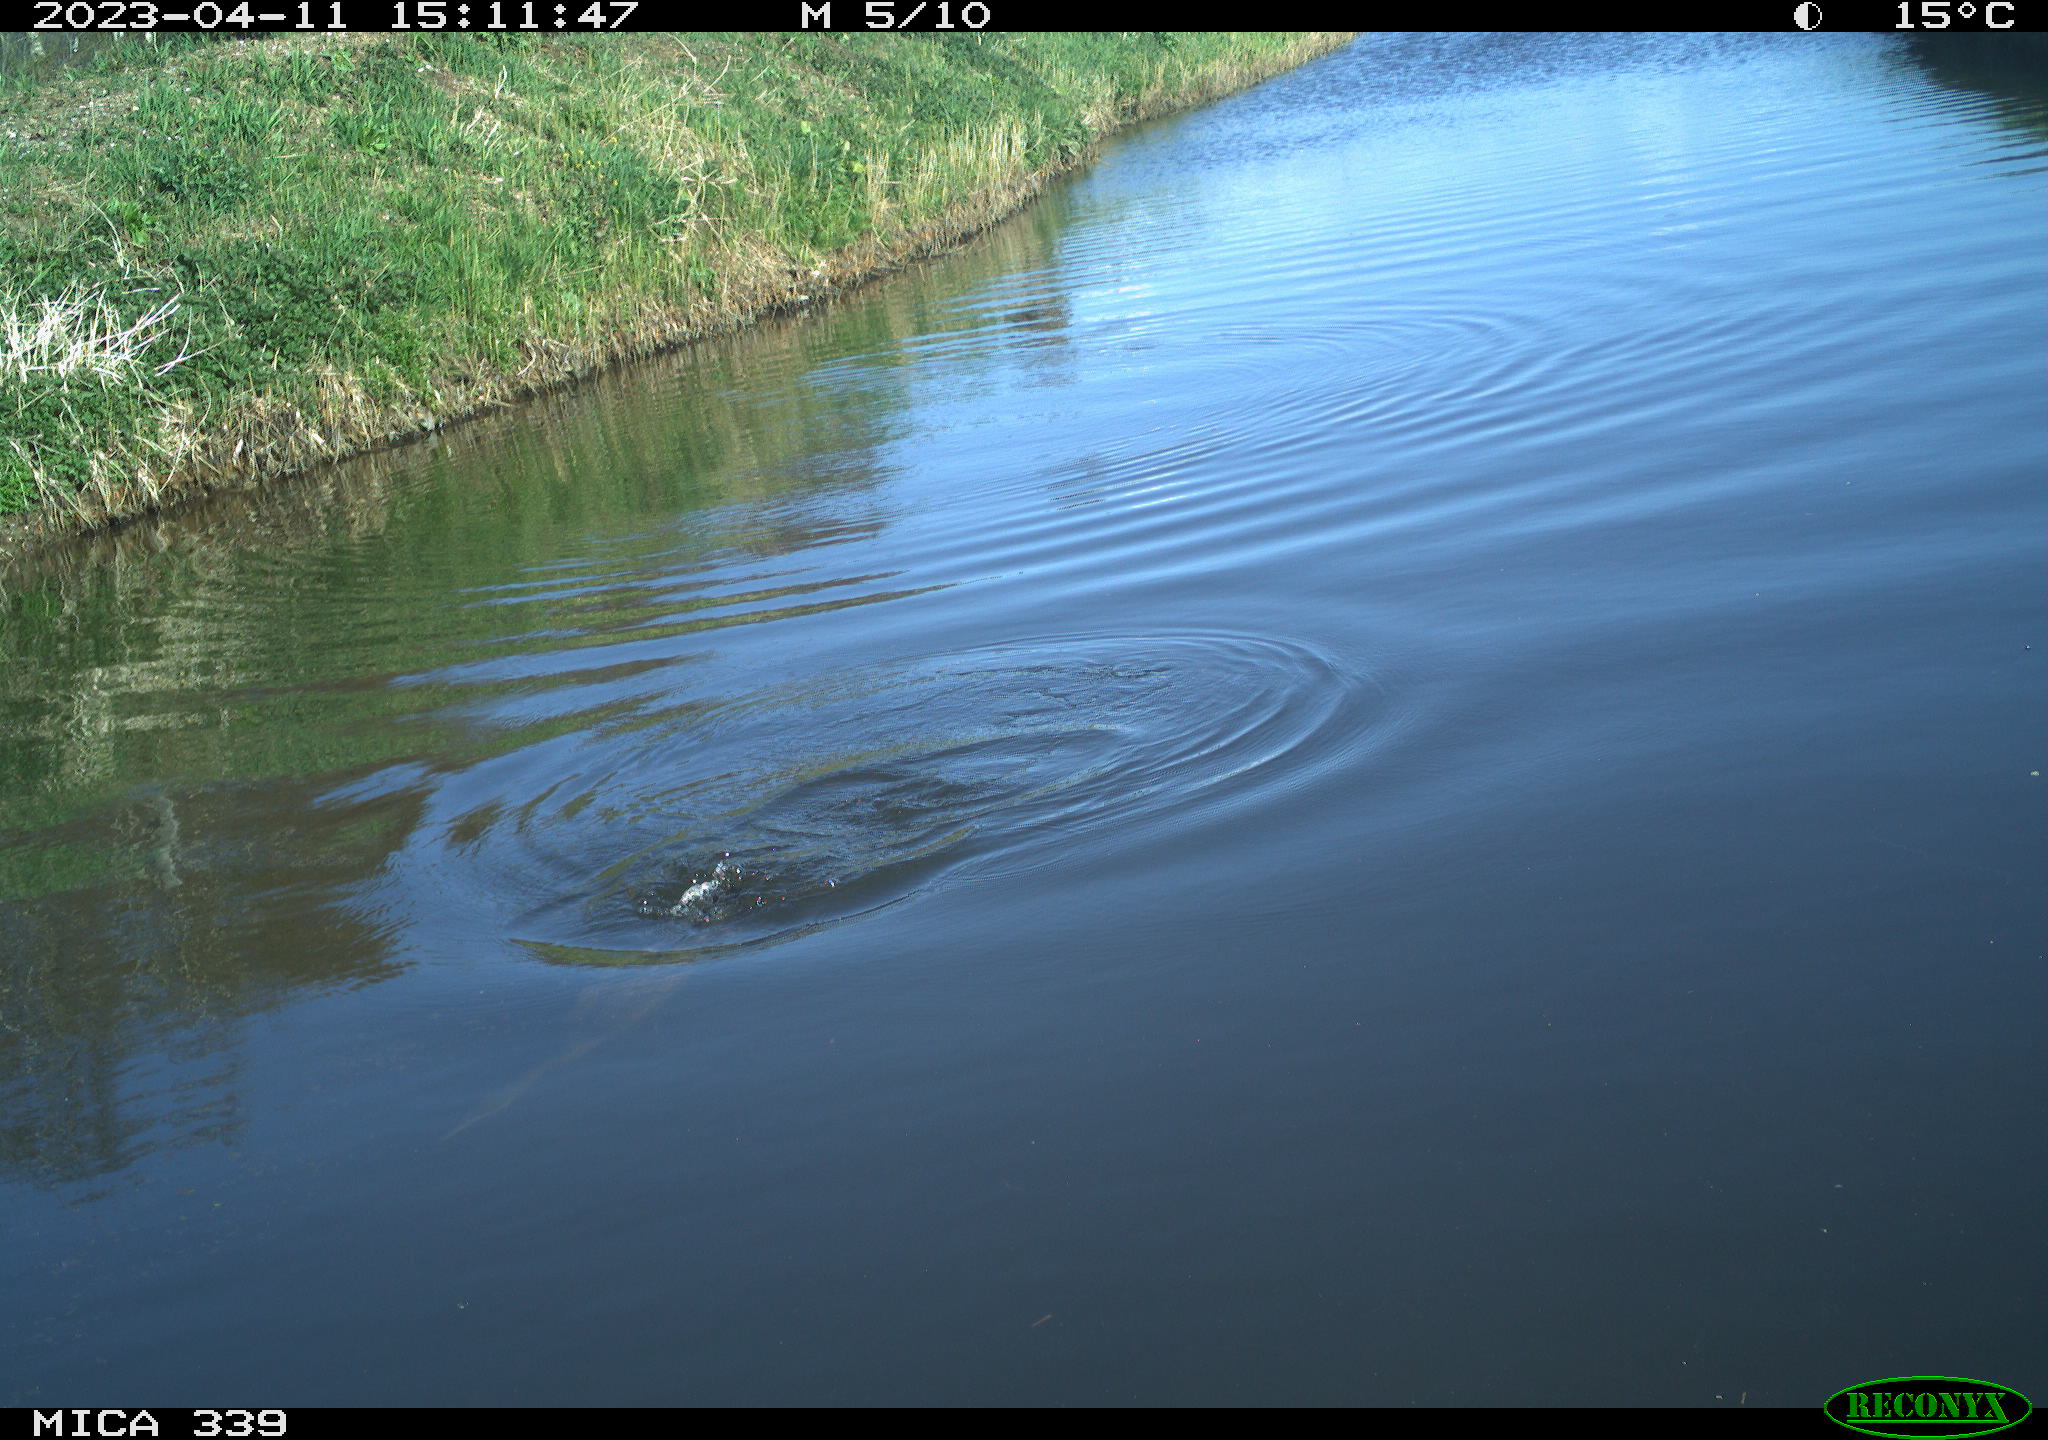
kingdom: Animalia
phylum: Chordata
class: Aves
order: Suliformes
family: Phalacrocoracidae
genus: Phalacrocorax
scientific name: Phalacrocorax carbo
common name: Great cormorant
